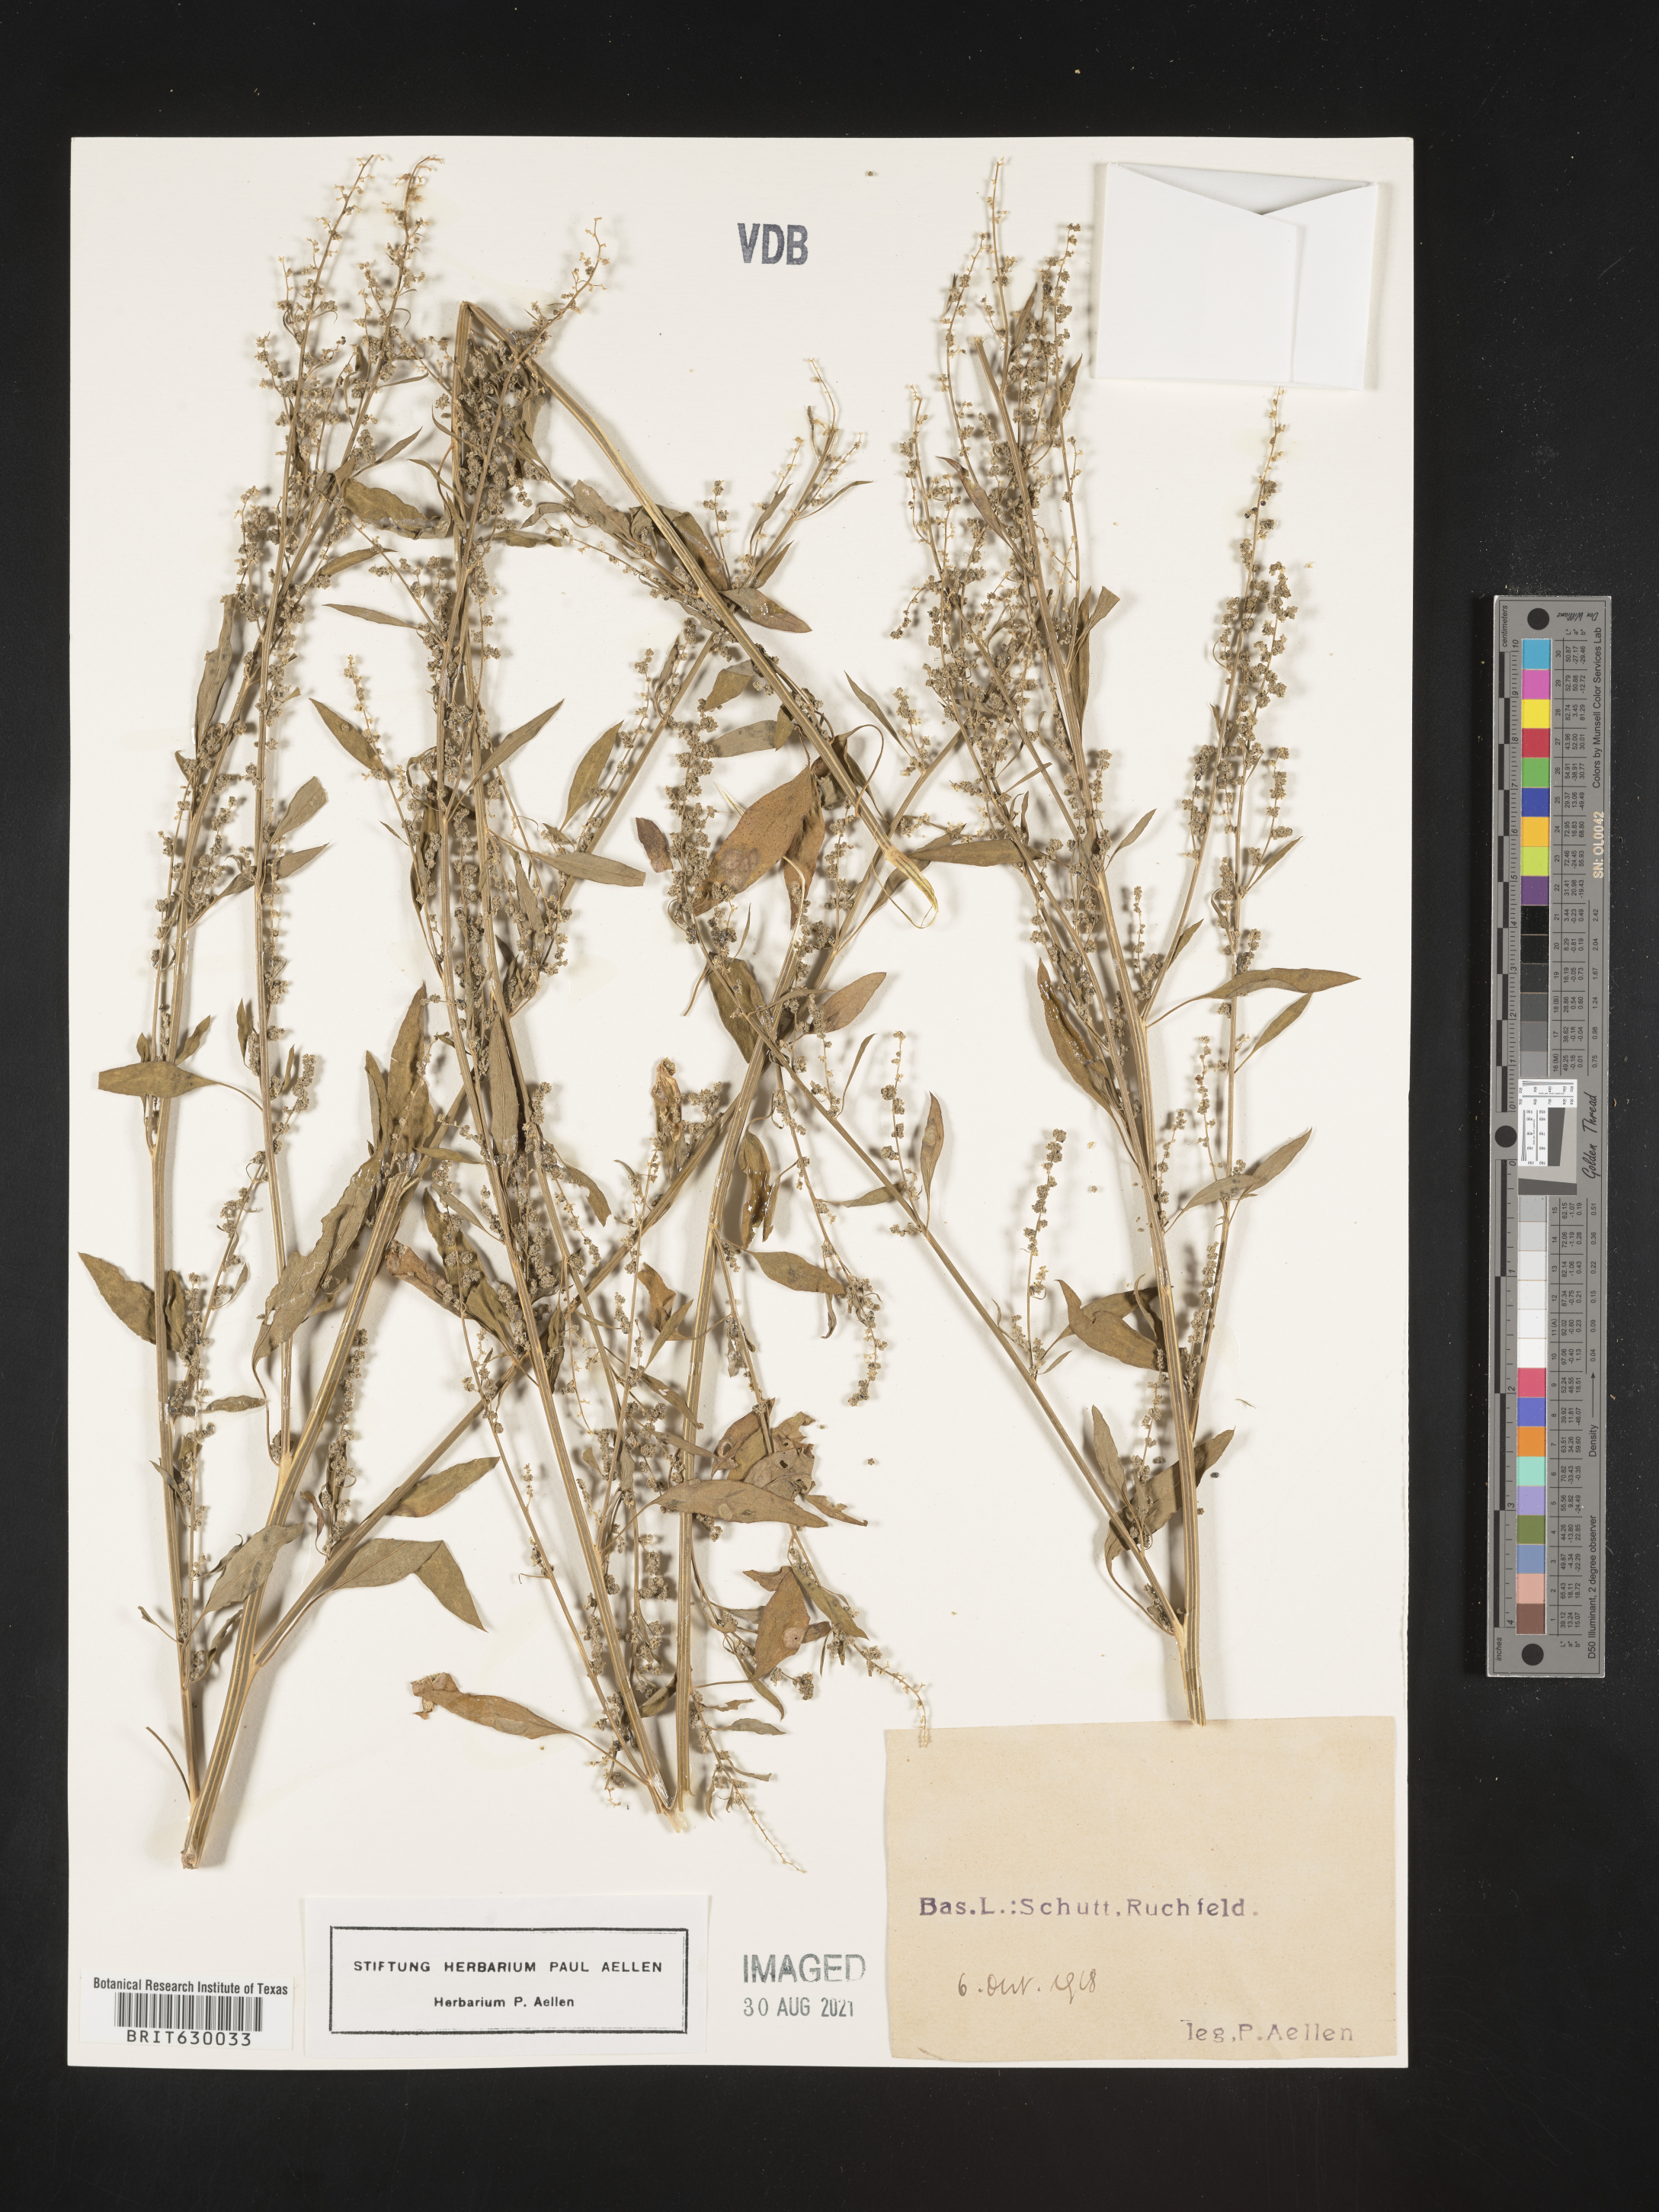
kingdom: Plantae
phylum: Tracheophyta
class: Magnoliopsida
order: Caryophyllales
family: Amaranthaceae
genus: Chenopodium
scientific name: Chenopodium
